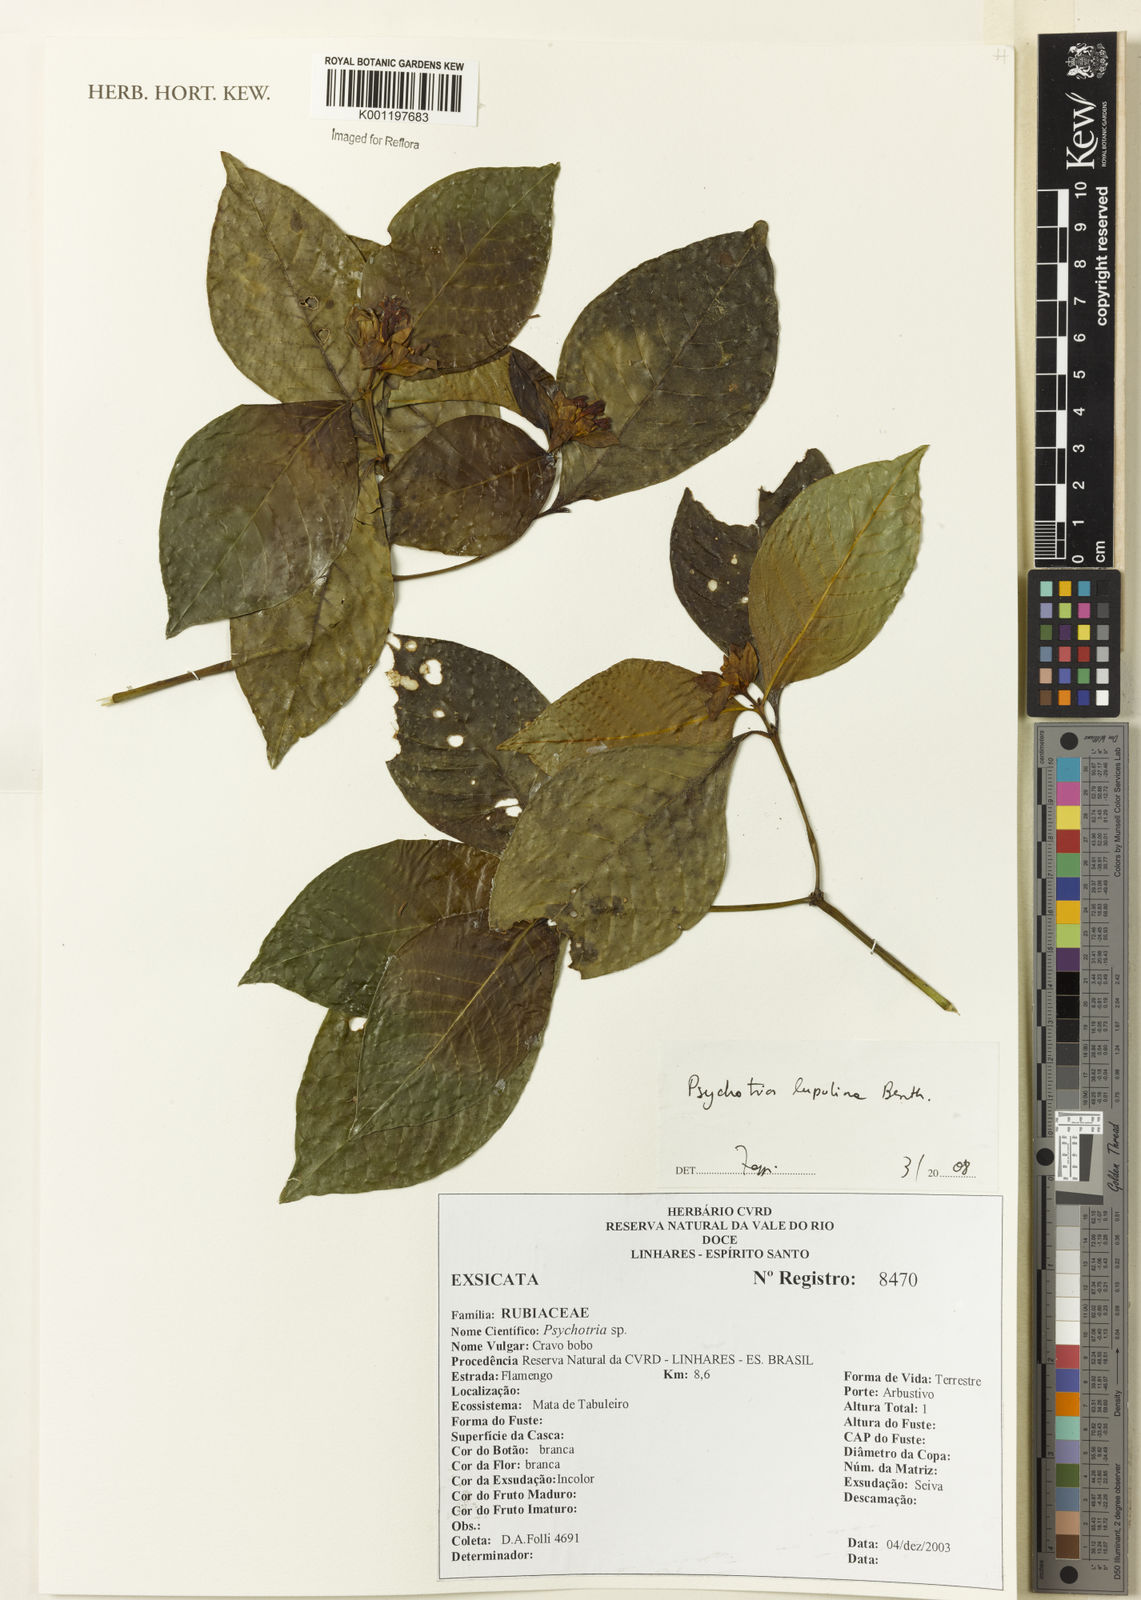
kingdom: Plantae
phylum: Tracheophyta
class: Magnoliopsida
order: Gentianales
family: Rubiaceae
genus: Palicourea
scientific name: Palicourea justiciifolia
